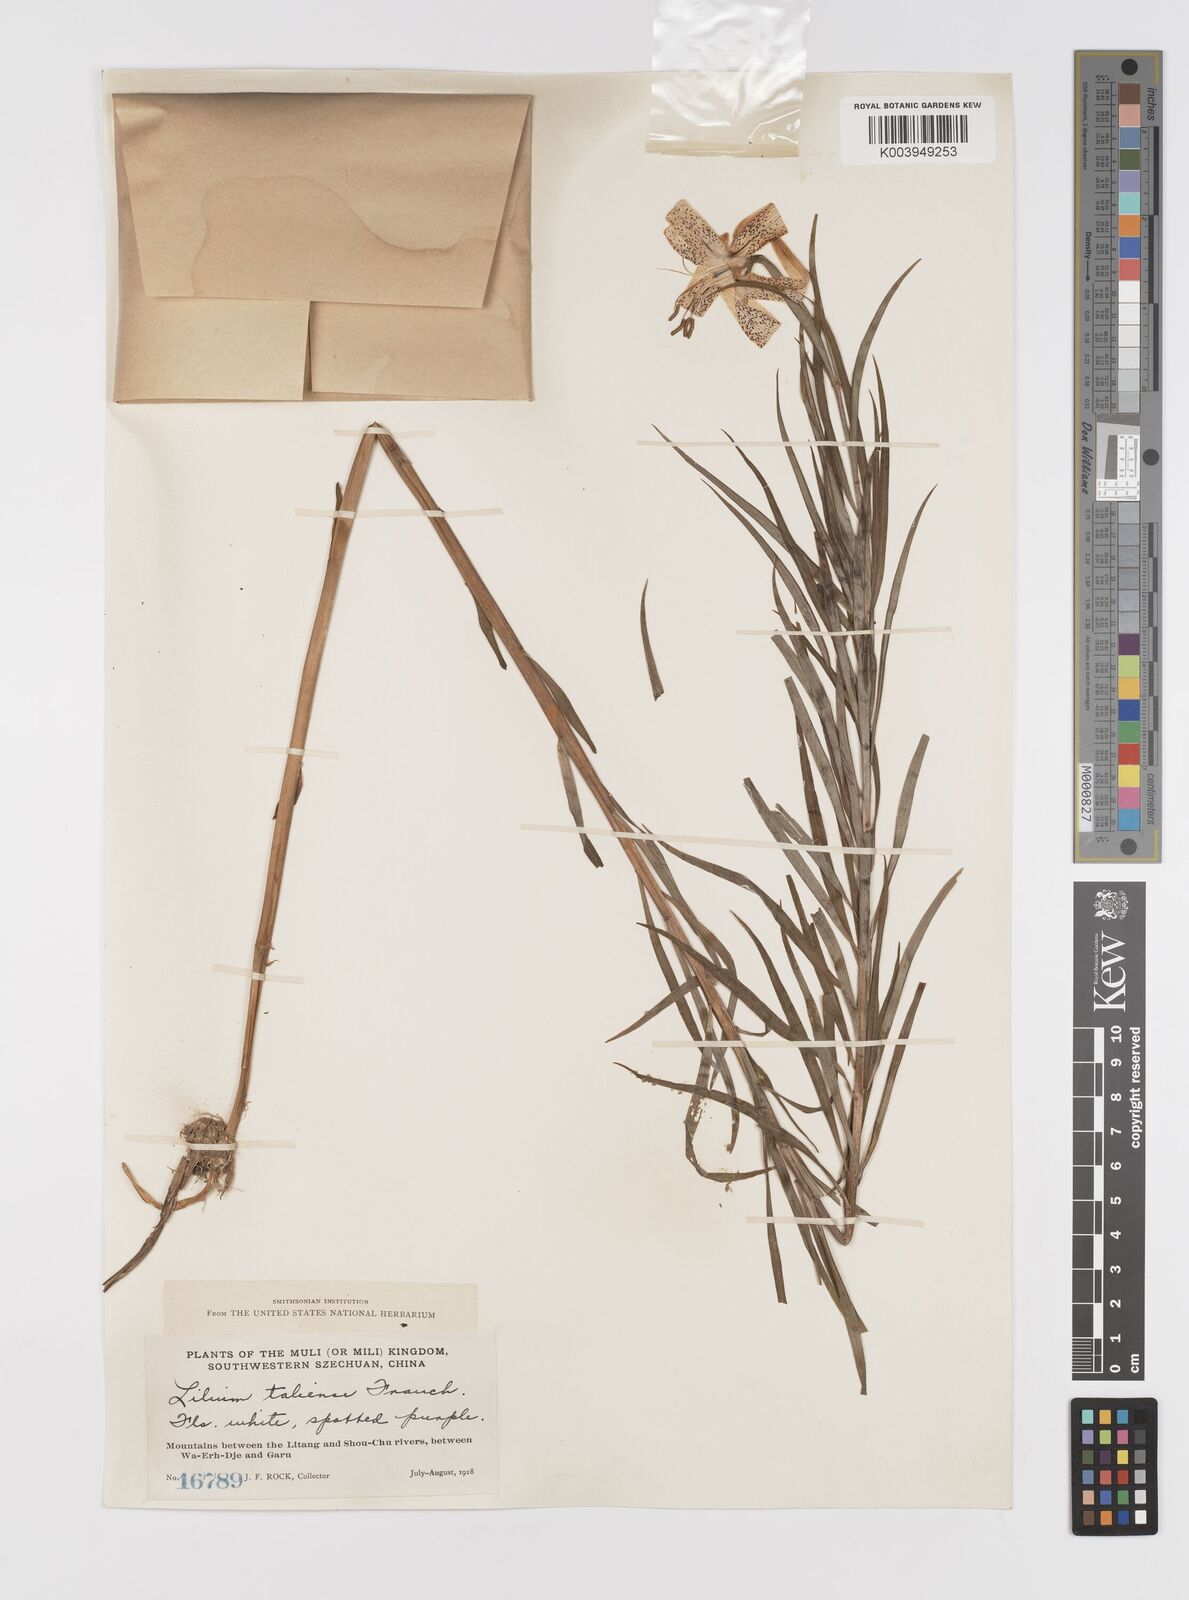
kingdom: Plantae
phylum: Tracheophyta
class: Liliopsida
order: Liliales
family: Liliaceae
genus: Lilium
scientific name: Lilium taliense
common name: Tali lily
